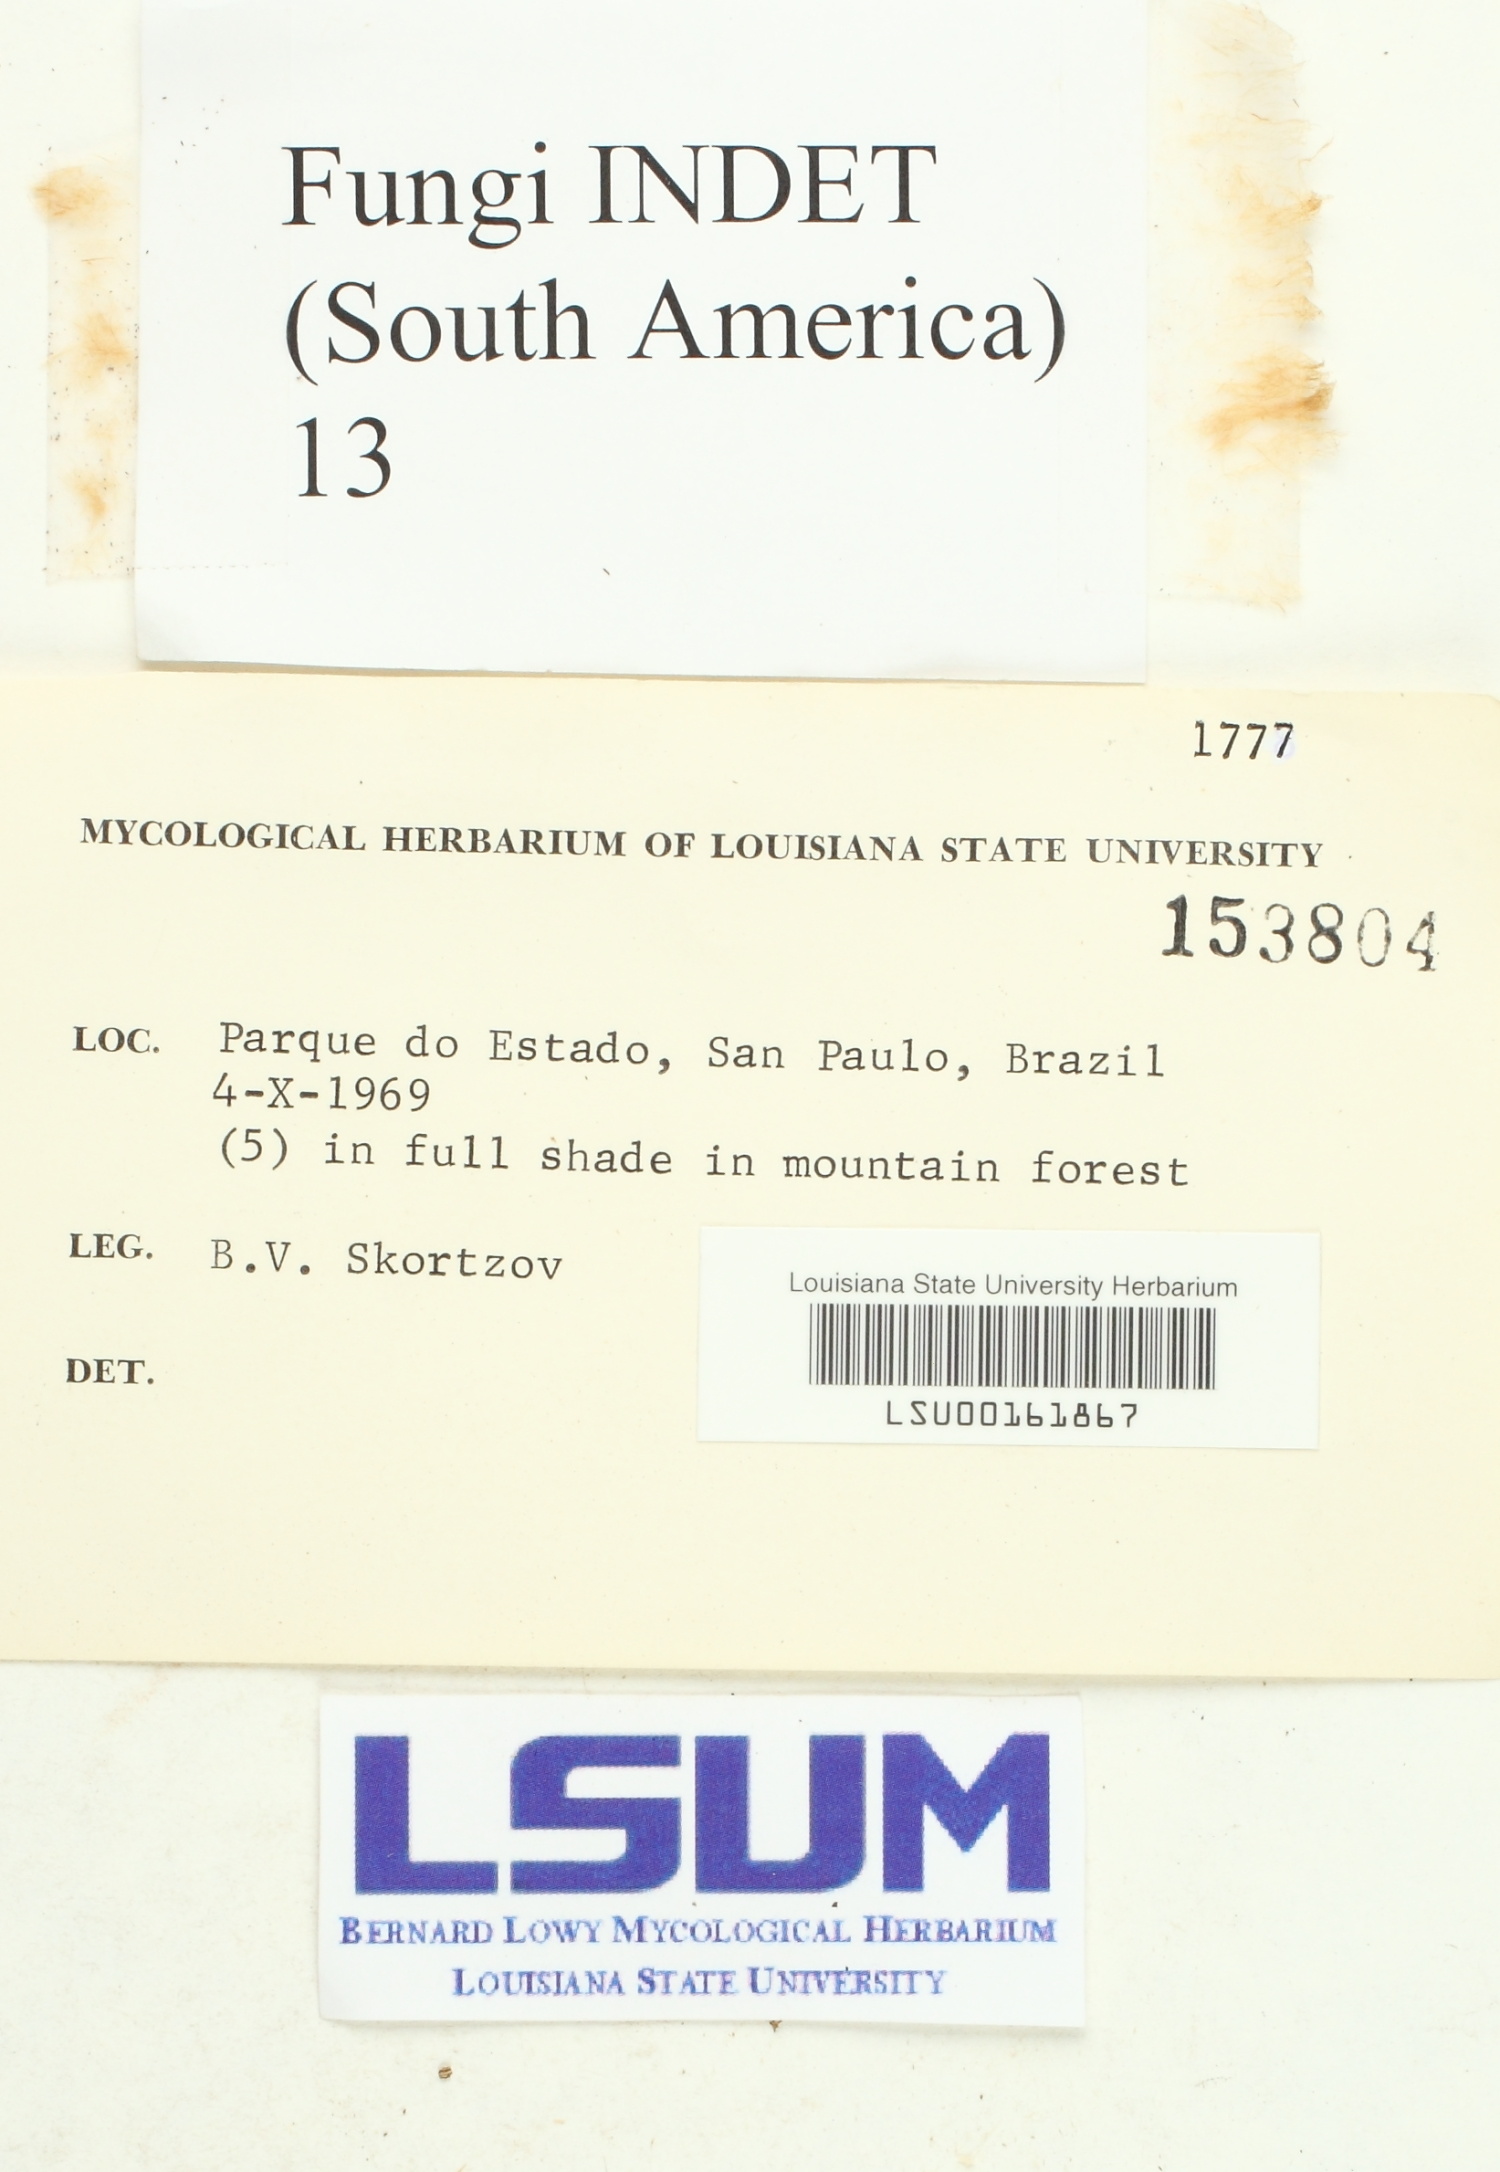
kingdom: Fungi
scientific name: Fungi
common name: Fungi
